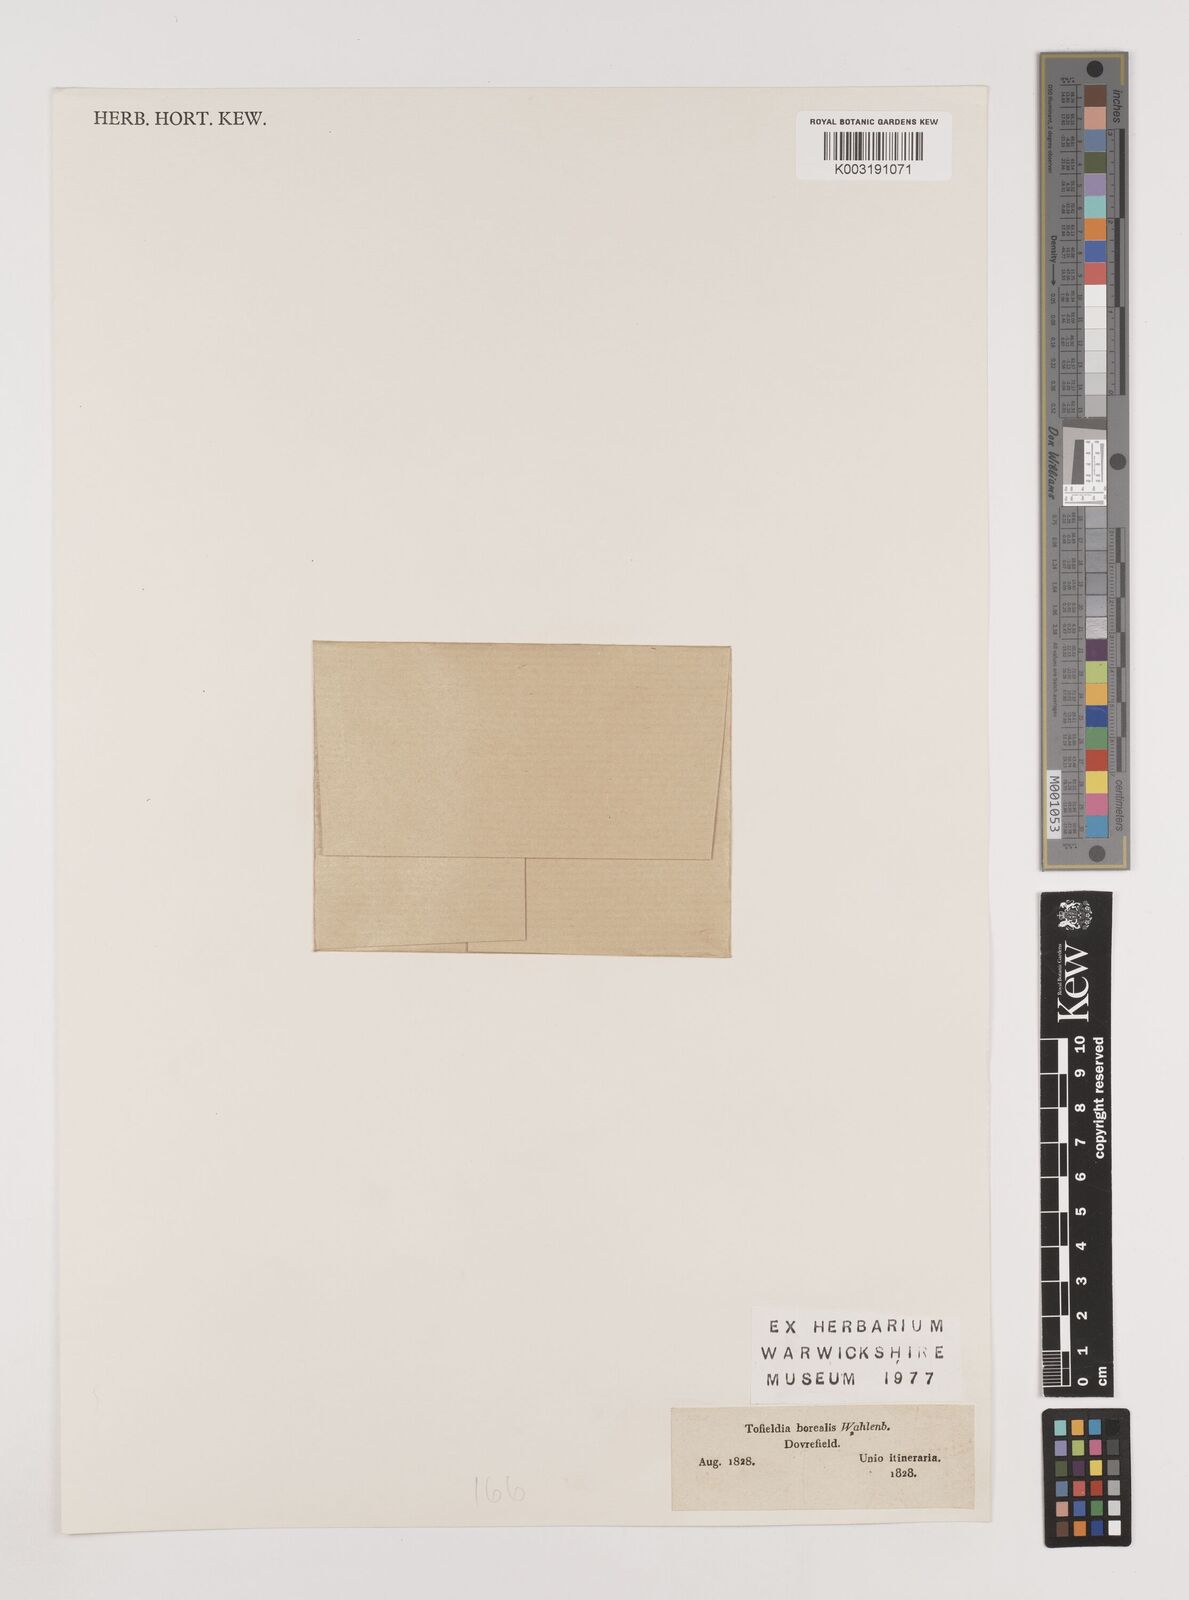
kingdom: Plantae
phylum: Tracheophyta
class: Liliopsida
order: Alismatales
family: Tofieldiaceae
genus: Tofieldia
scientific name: Tofieldia pusilla
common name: Scottish false asphodel
